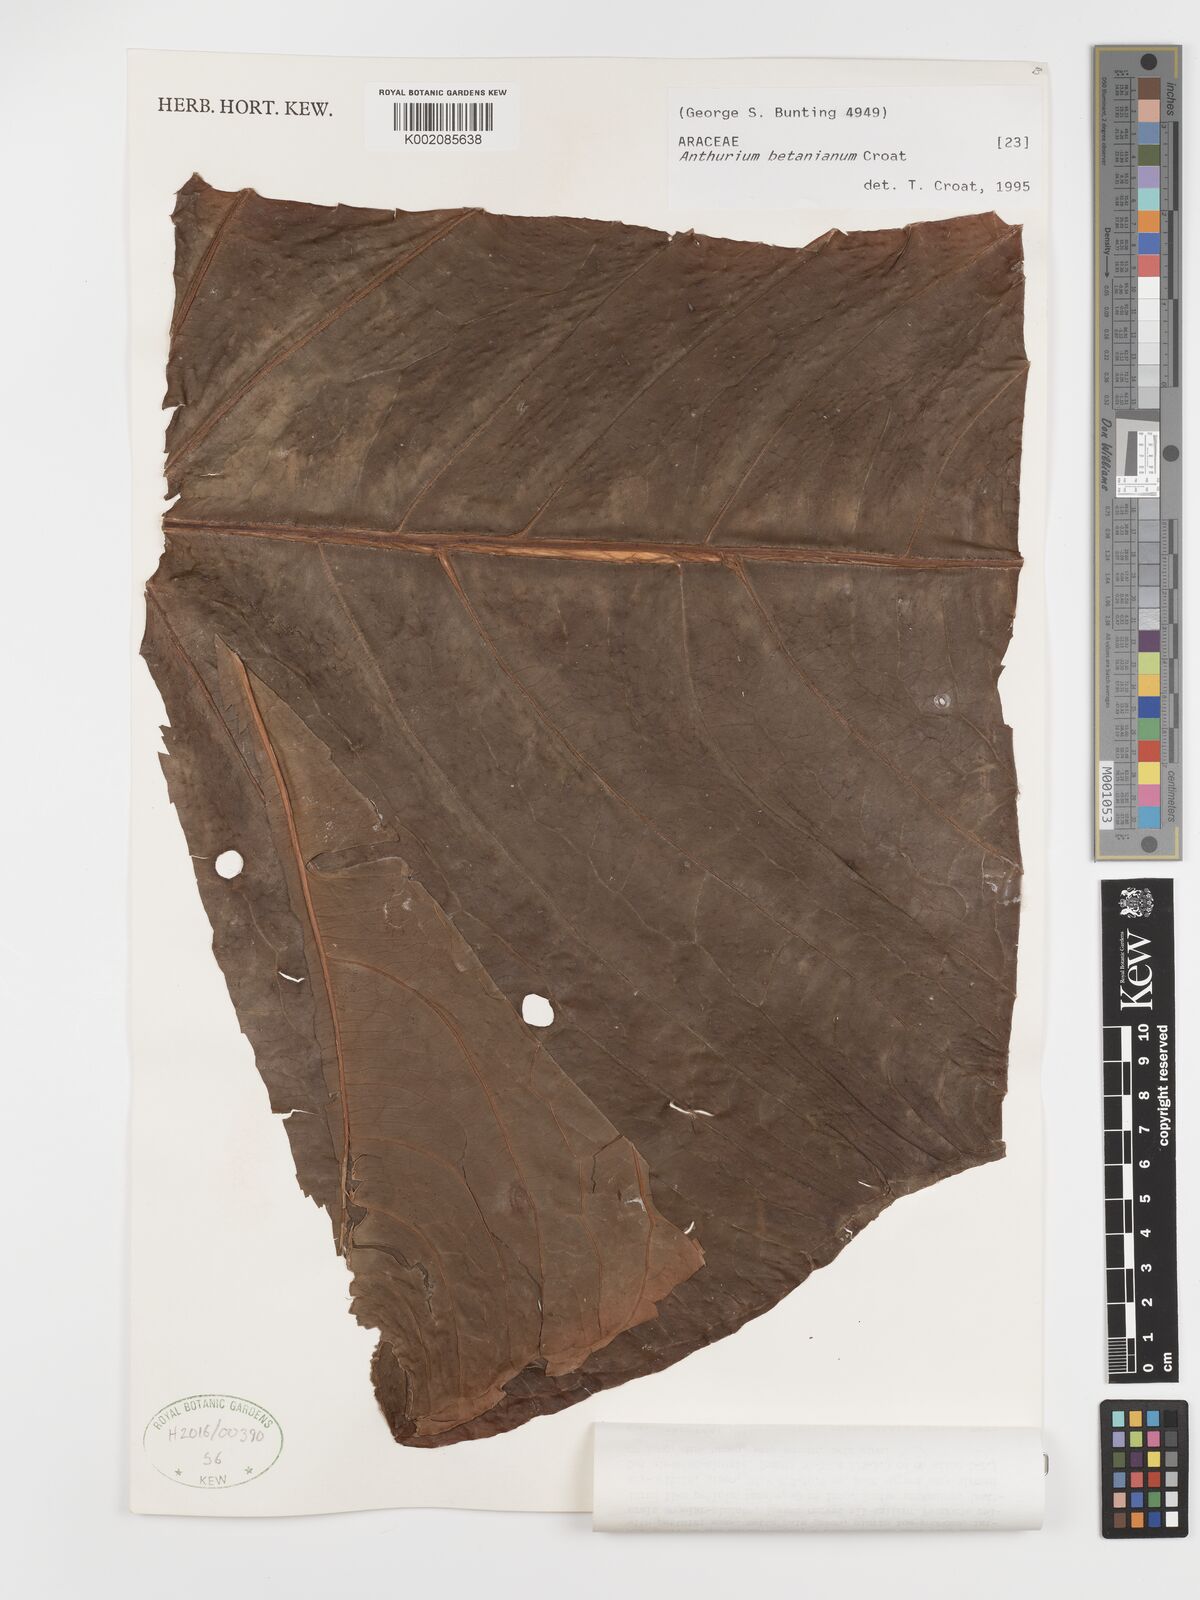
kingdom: Plantae
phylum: Tracheophyta
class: Liliopsida
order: Alismatales
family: Araceae
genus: Anthurium
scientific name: Anthurium betanianum
